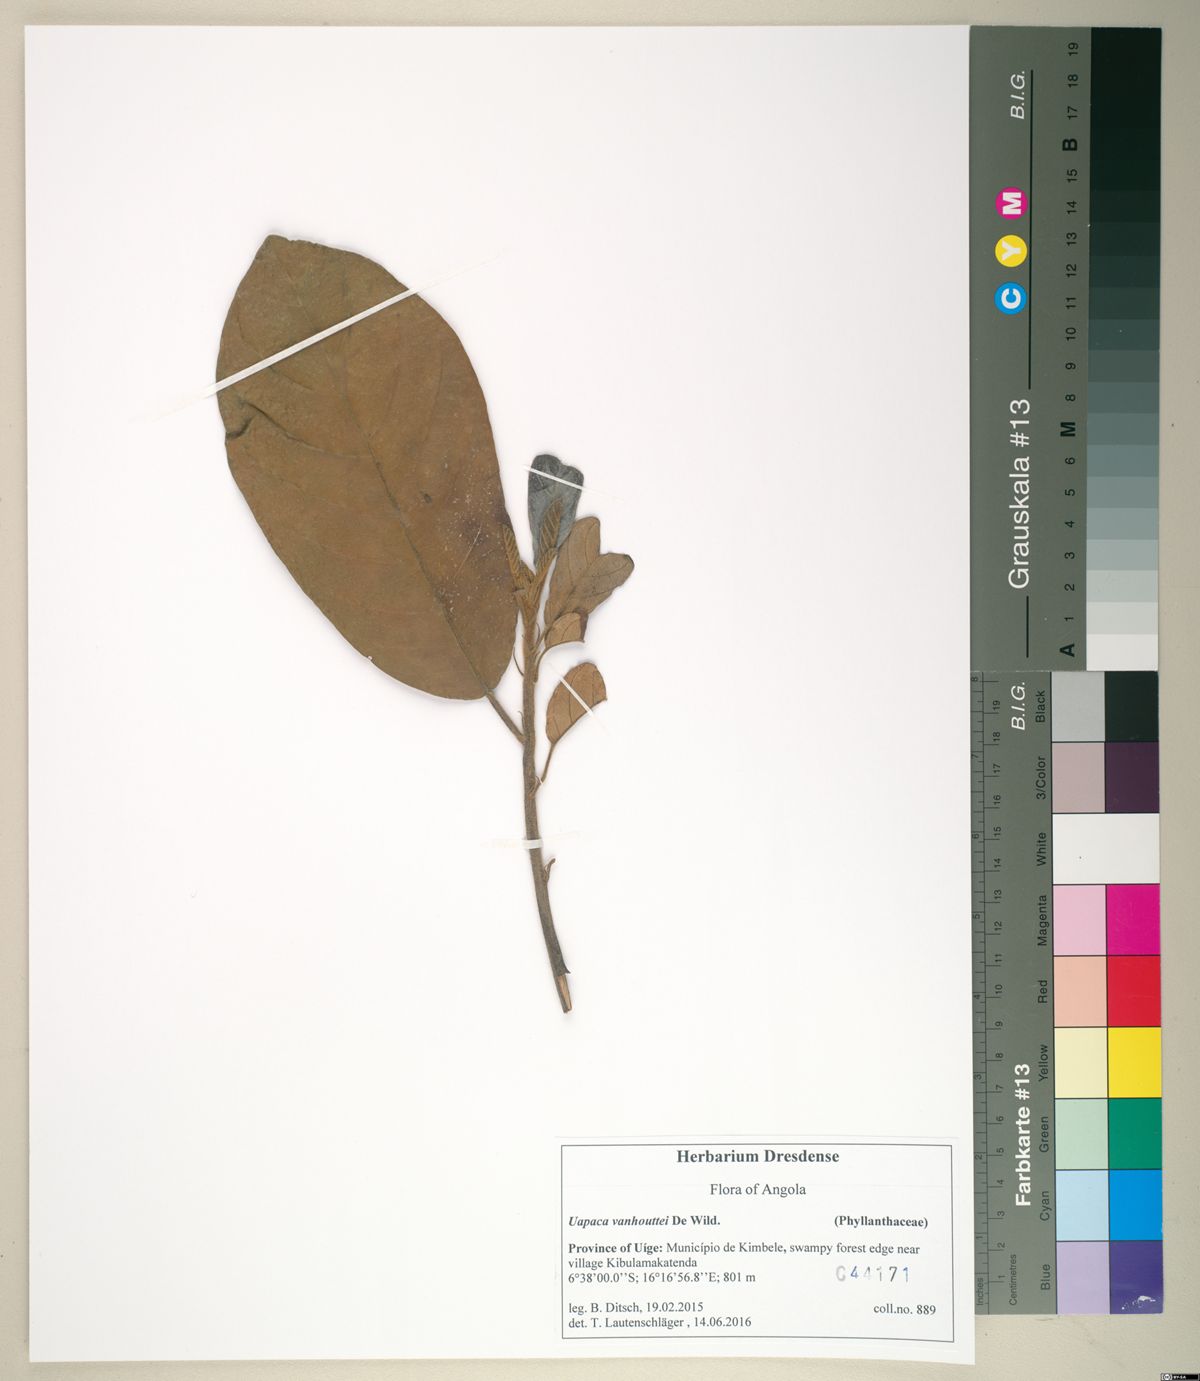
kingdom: Plantae
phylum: Tracheophyta
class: Magnoliopsida
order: Malpighiales
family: Phyllanthaceae
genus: Uapaca
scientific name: Uapaca vanhouttei
